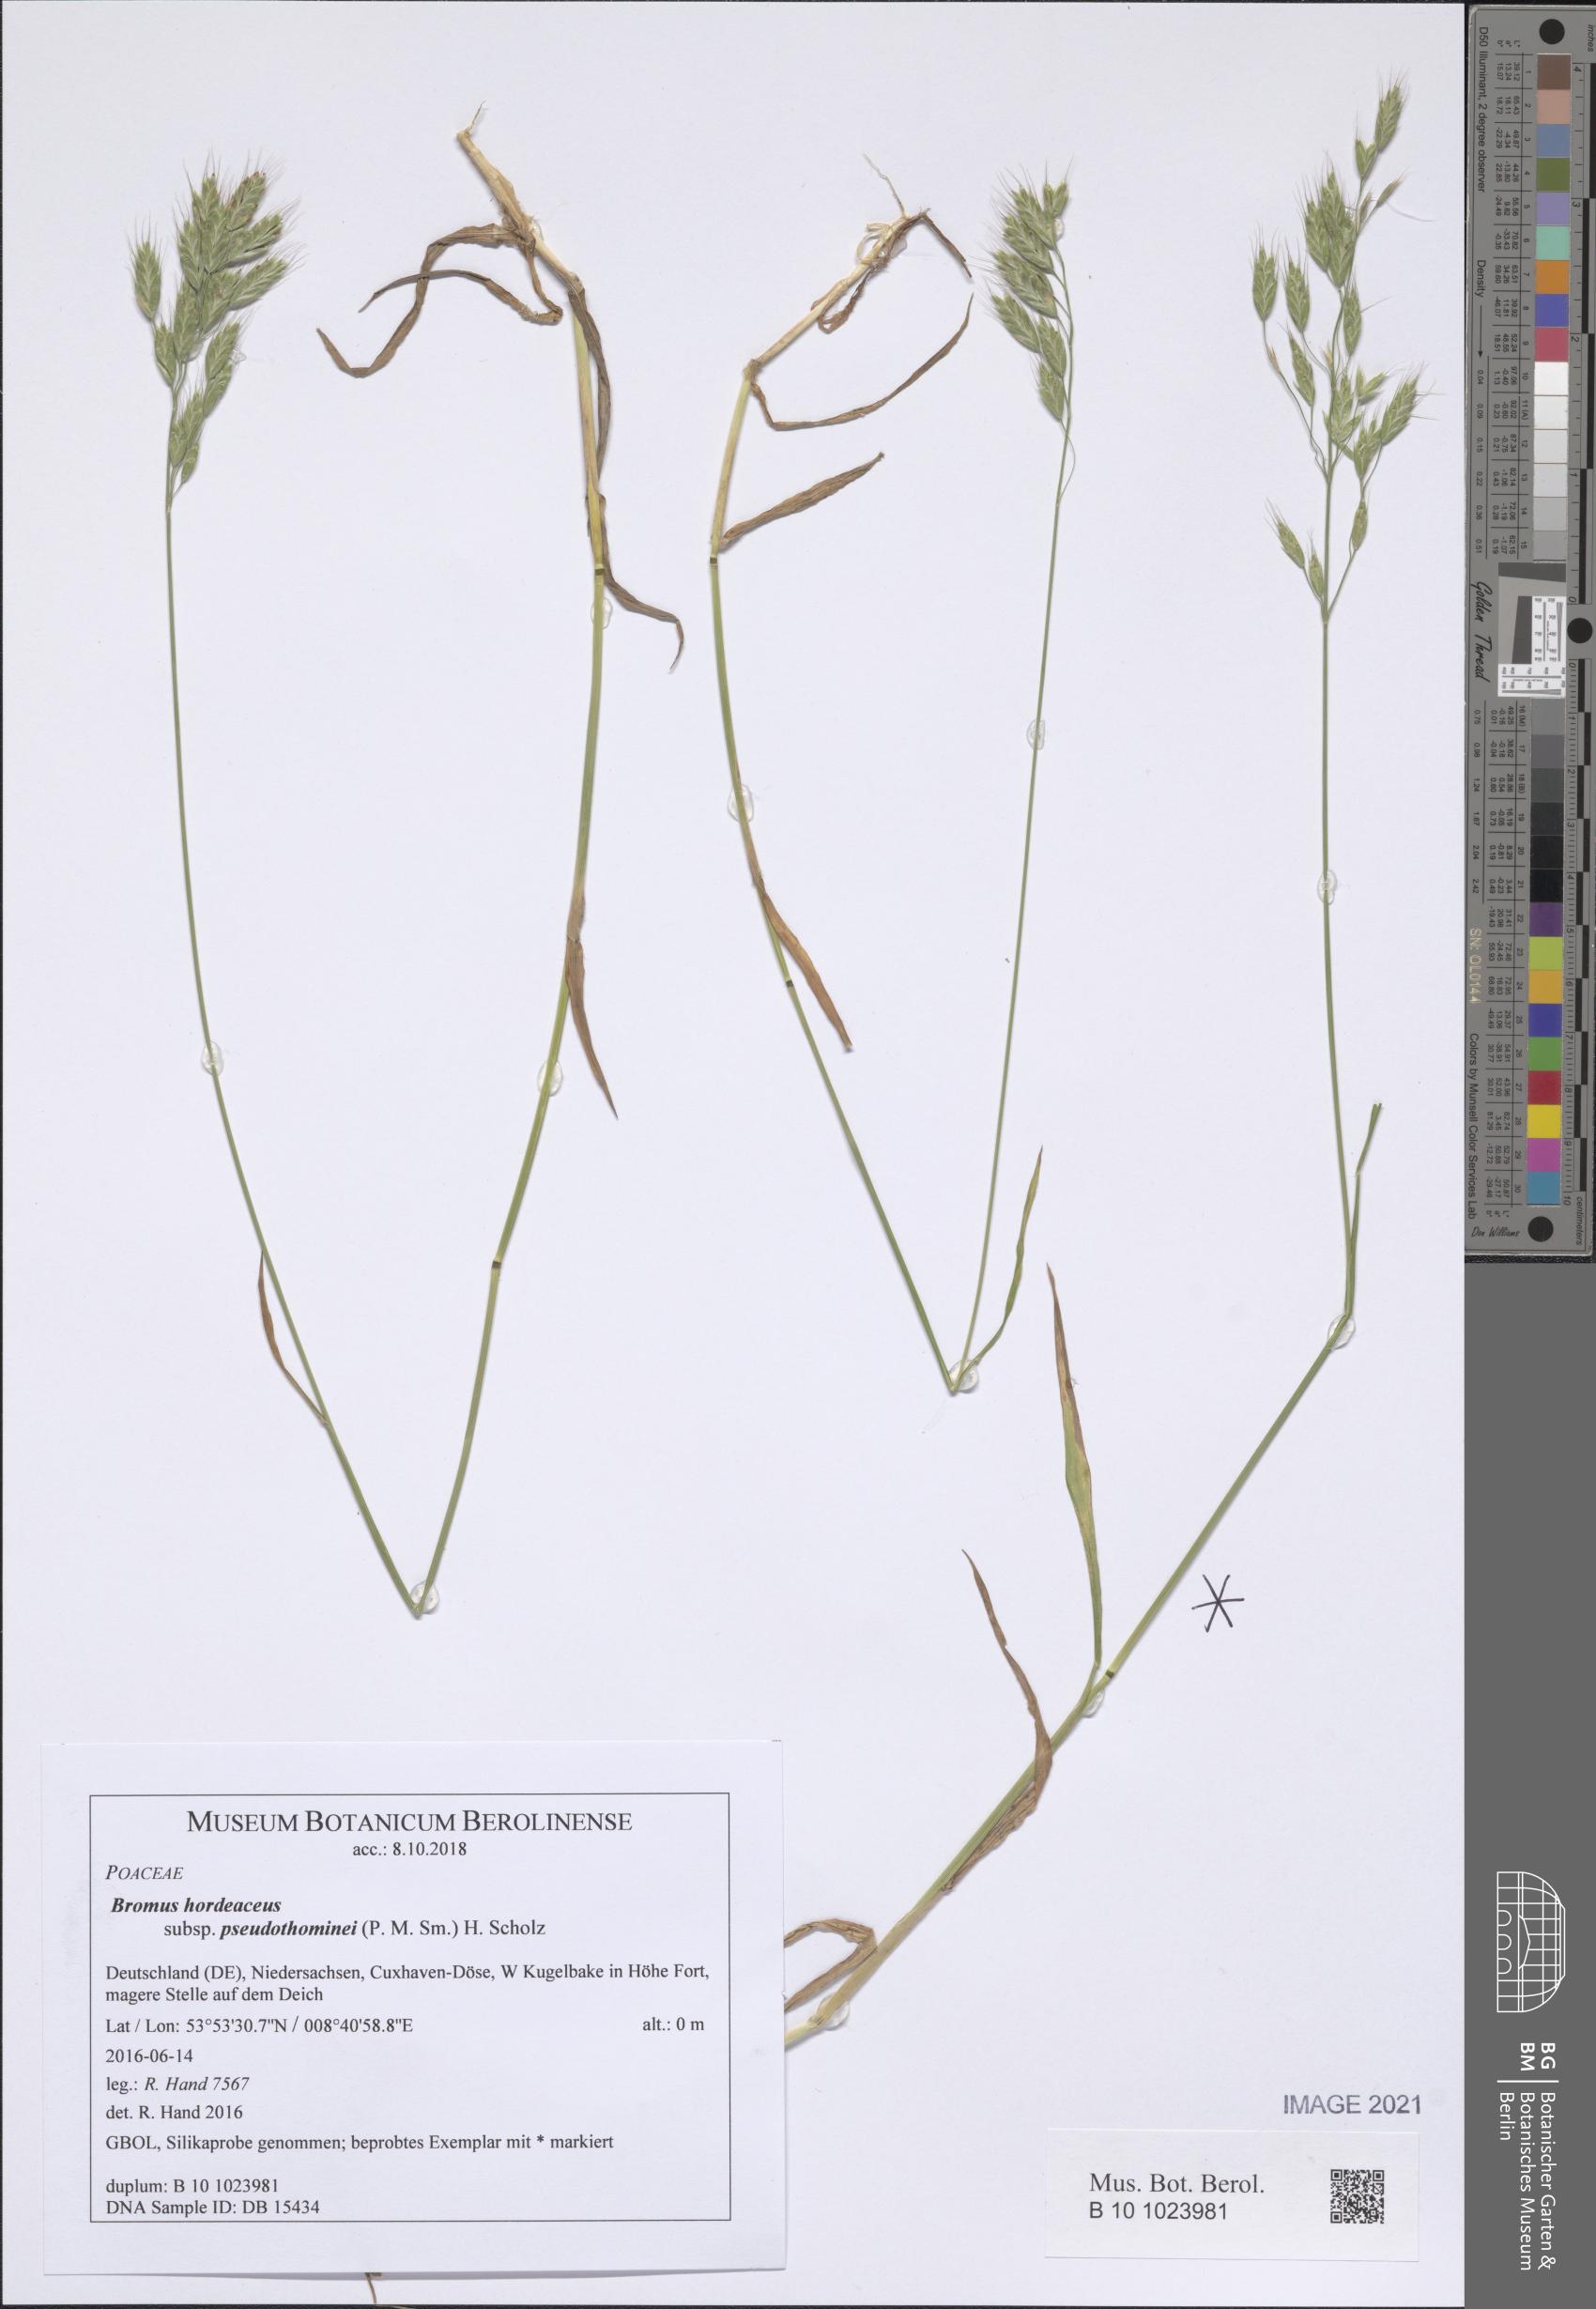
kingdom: Plantae
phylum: Tracheophyta
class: Liliopsida
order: Poales
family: Poaceae
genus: Bromus
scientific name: Bromus ferronii
